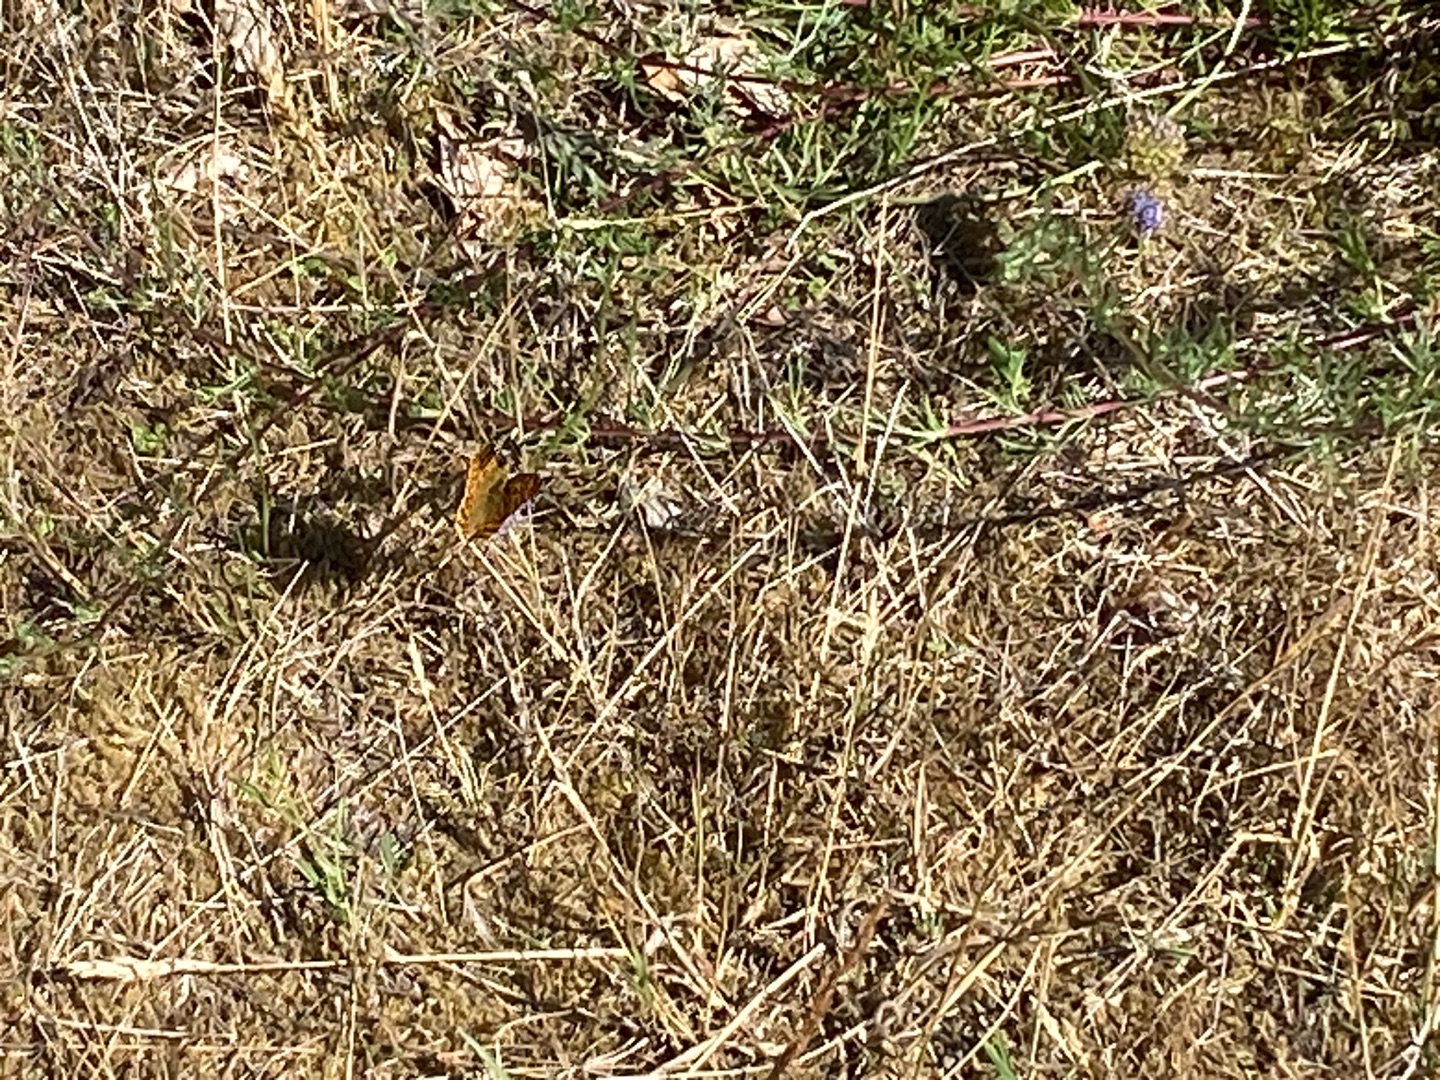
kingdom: Animalia
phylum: Arthropoda
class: Insecta
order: Lepidoptera
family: Nymphalidae
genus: Issoria
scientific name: Issoria lathonia
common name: Storplettet perlemorsommerfugl
